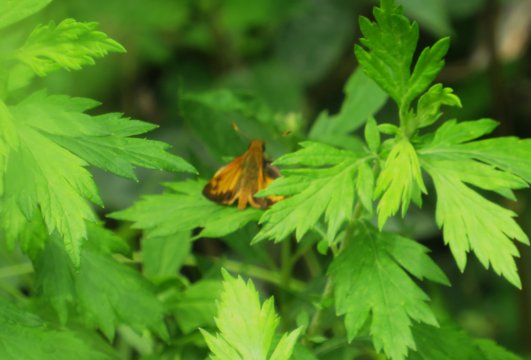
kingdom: Animalia
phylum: Arthropoda
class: Insecta
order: Lepidoptera
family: Hesperiidae
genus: Lon
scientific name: Lon zabulon
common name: Zabulon Skipper
